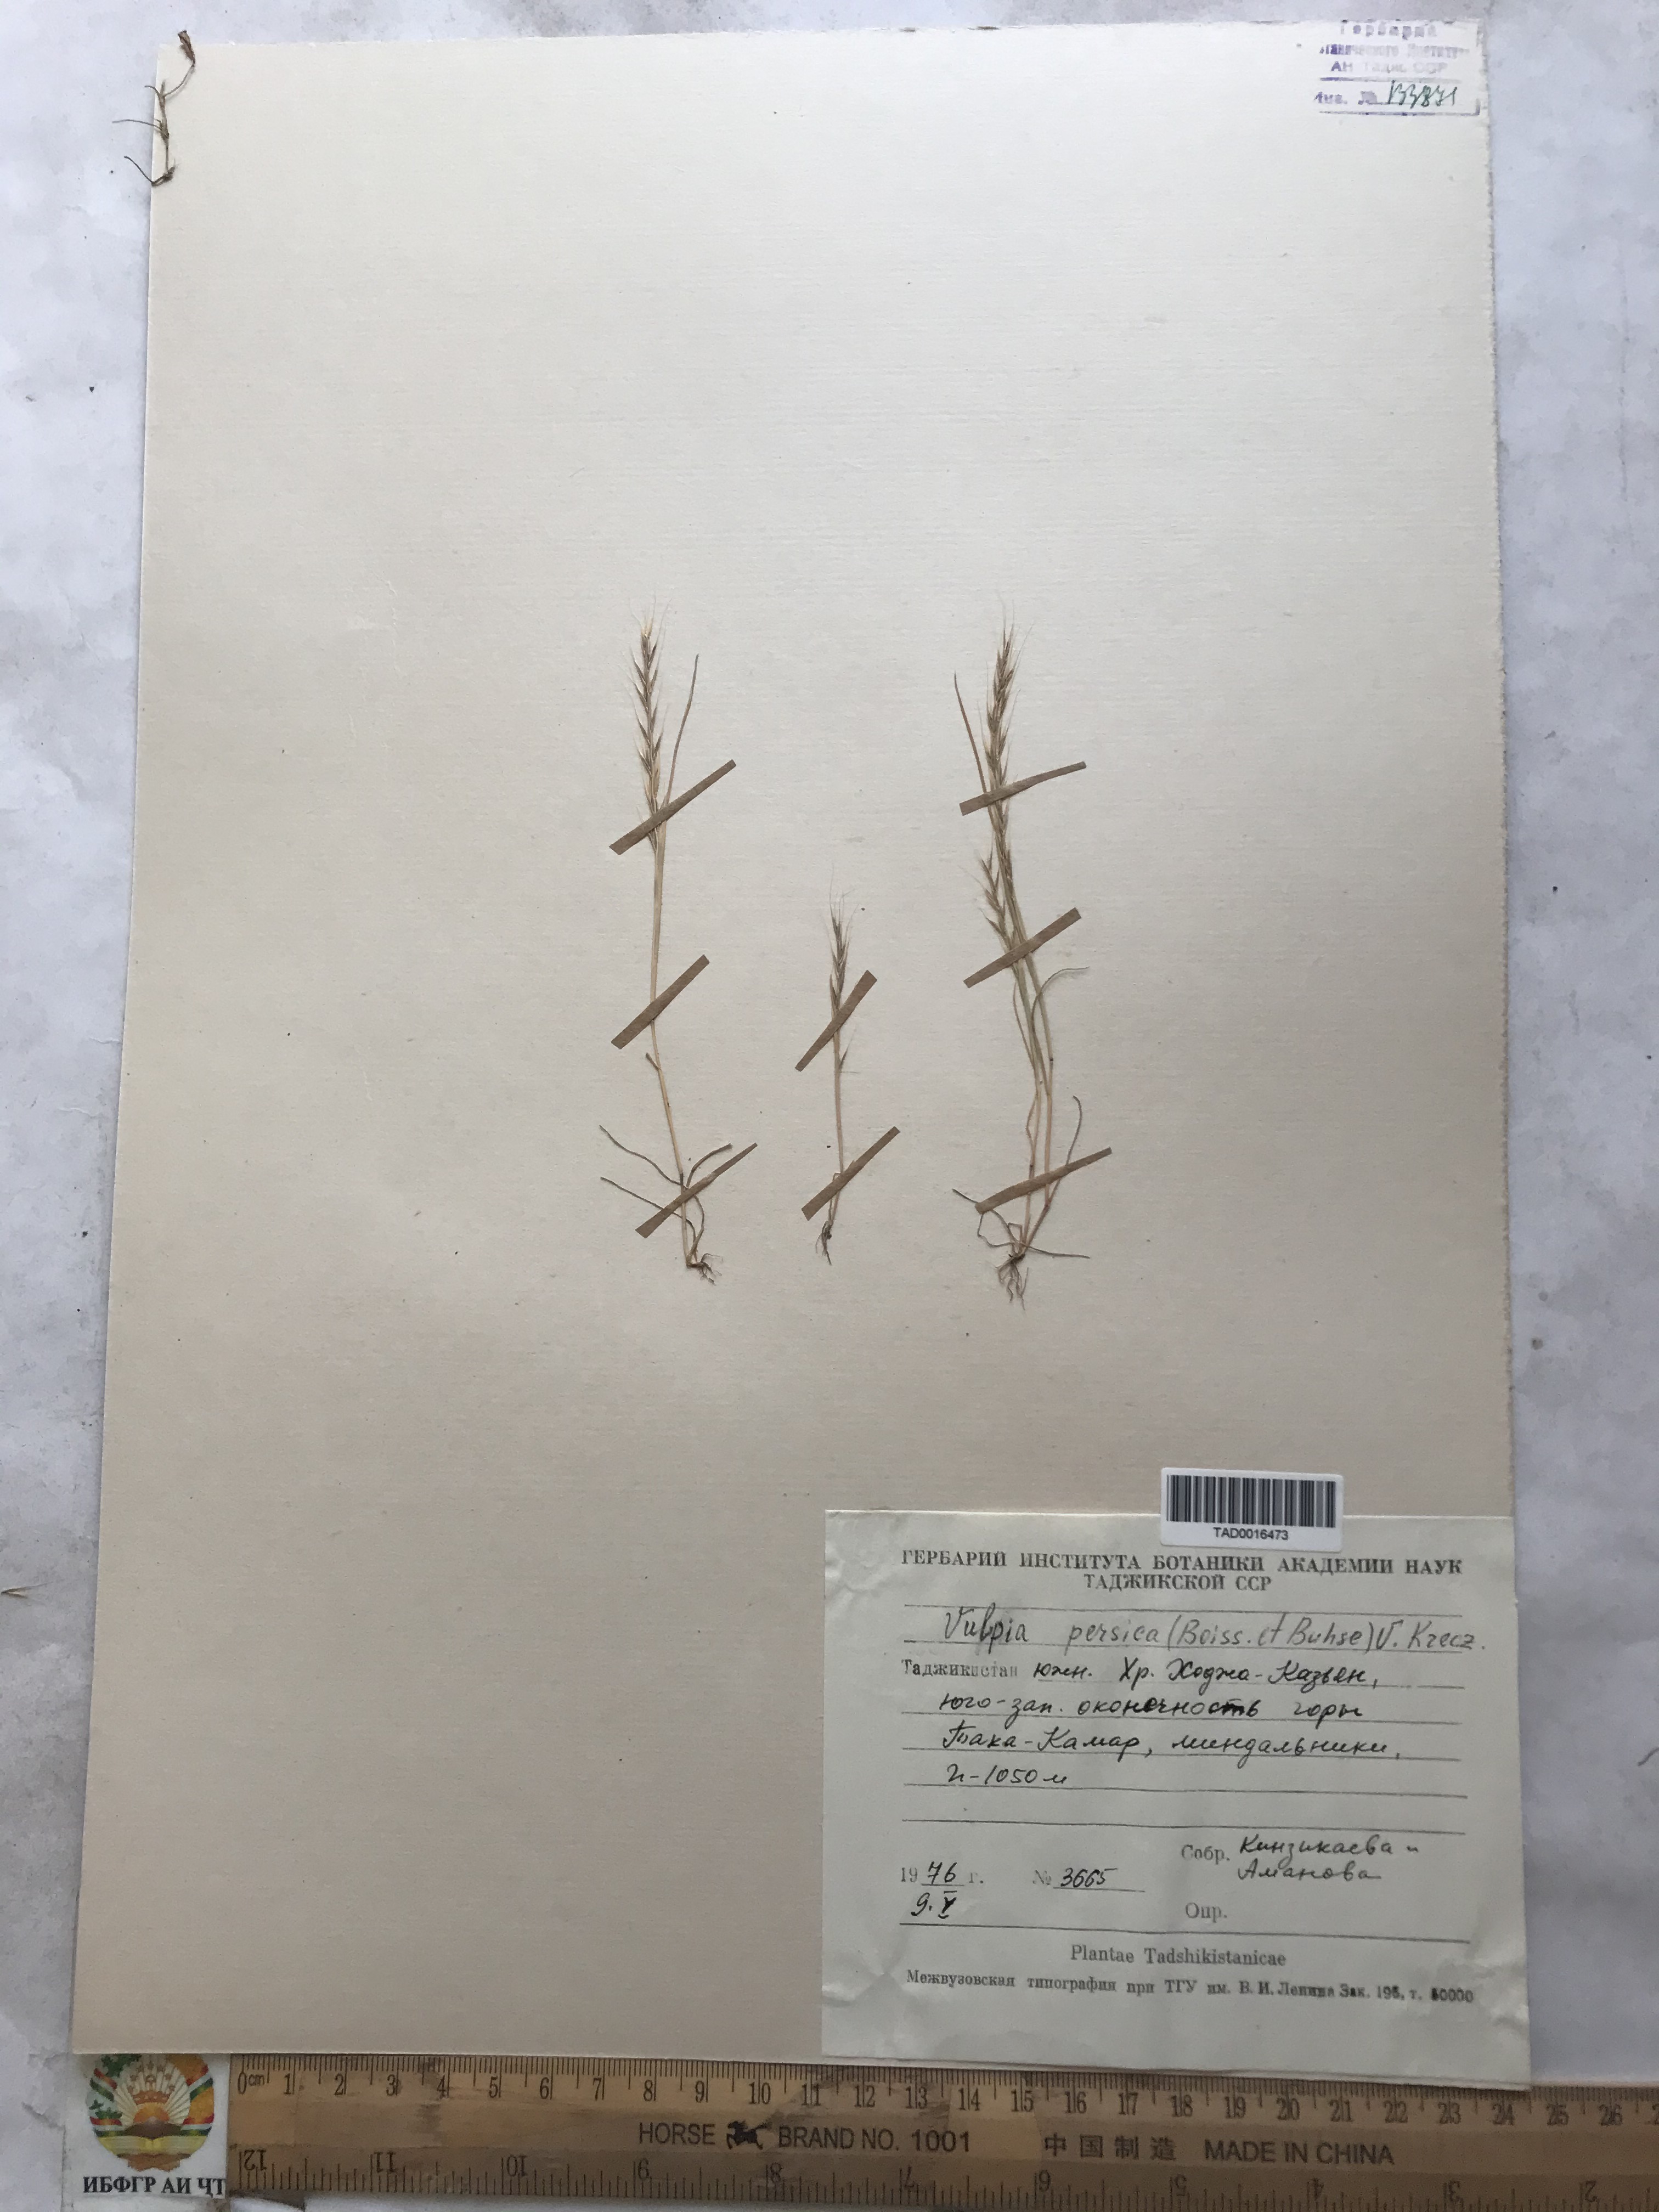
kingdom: Plantae
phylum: Tracheophyta
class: Liliopsida
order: Poales
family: Poaceae
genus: Festuca
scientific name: Festuca Vulpia persica
